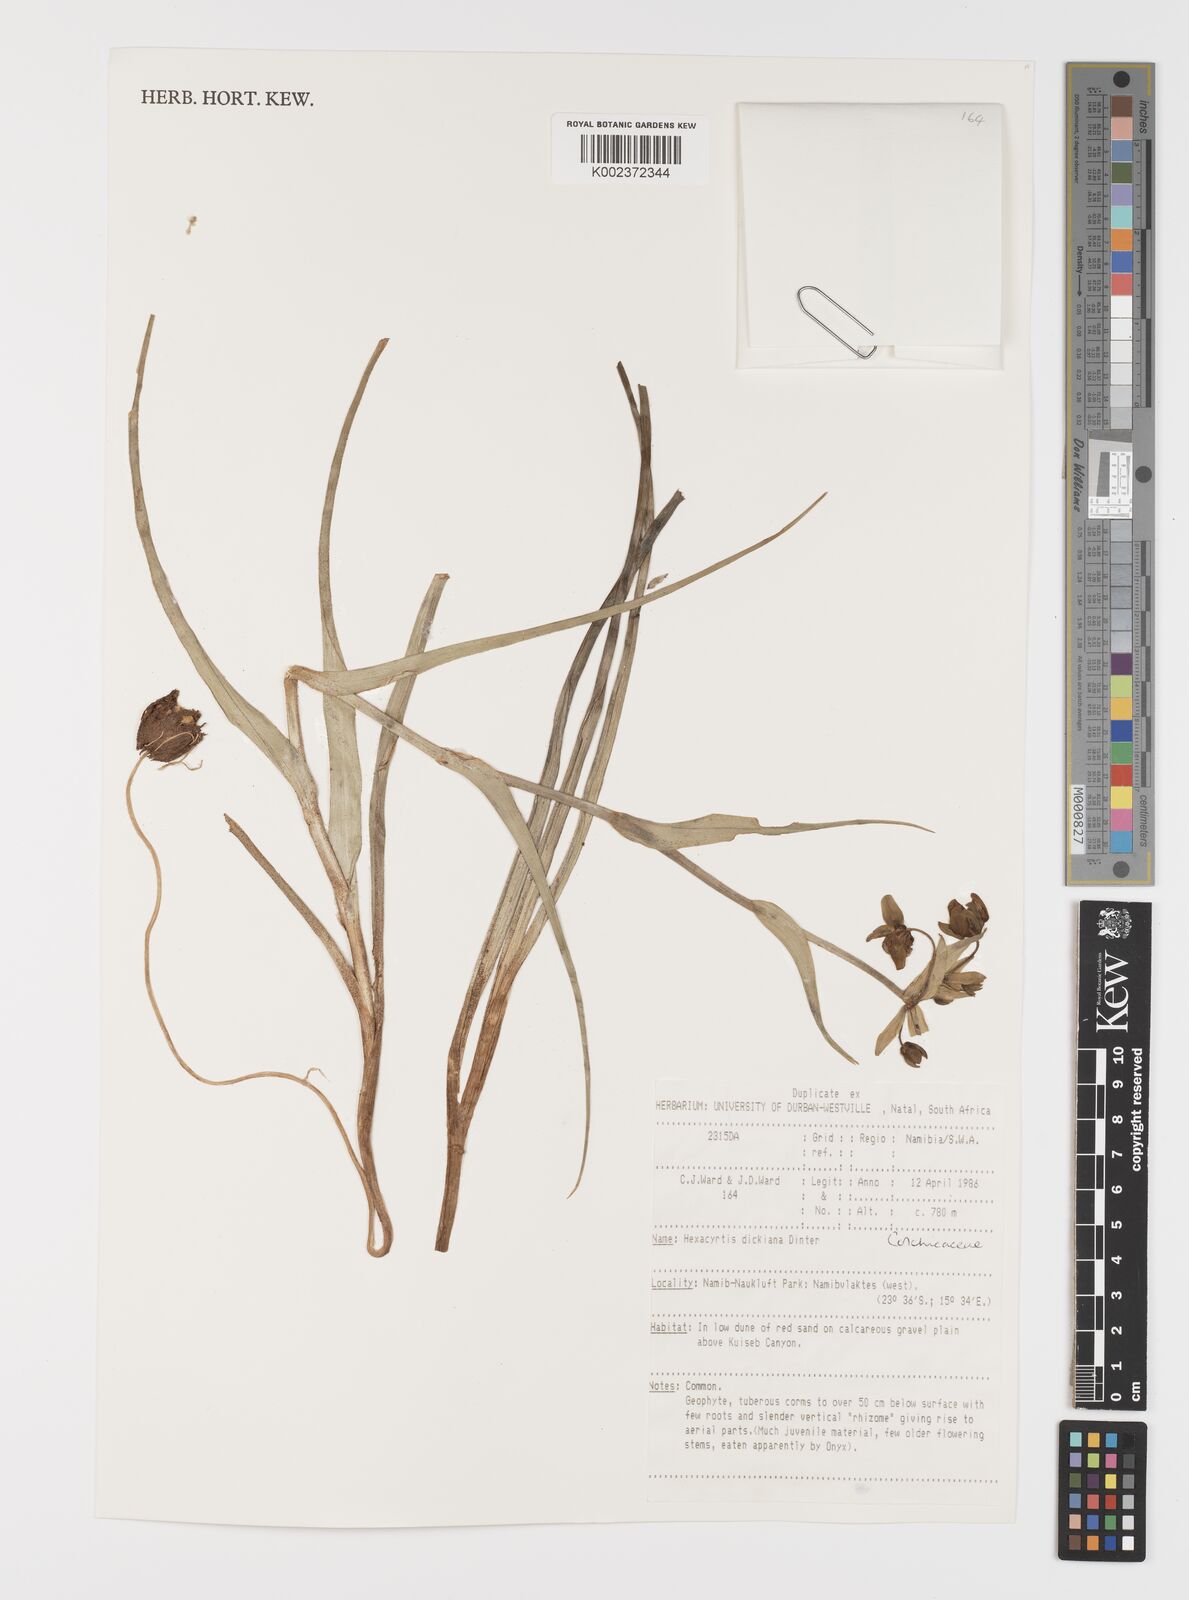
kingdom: Plantae
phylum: Tracheophyta
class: Liliopsida
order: Liliales
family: Colchicaceae
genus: Hexacyrtis
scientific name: Hexacyrtis dickiana
